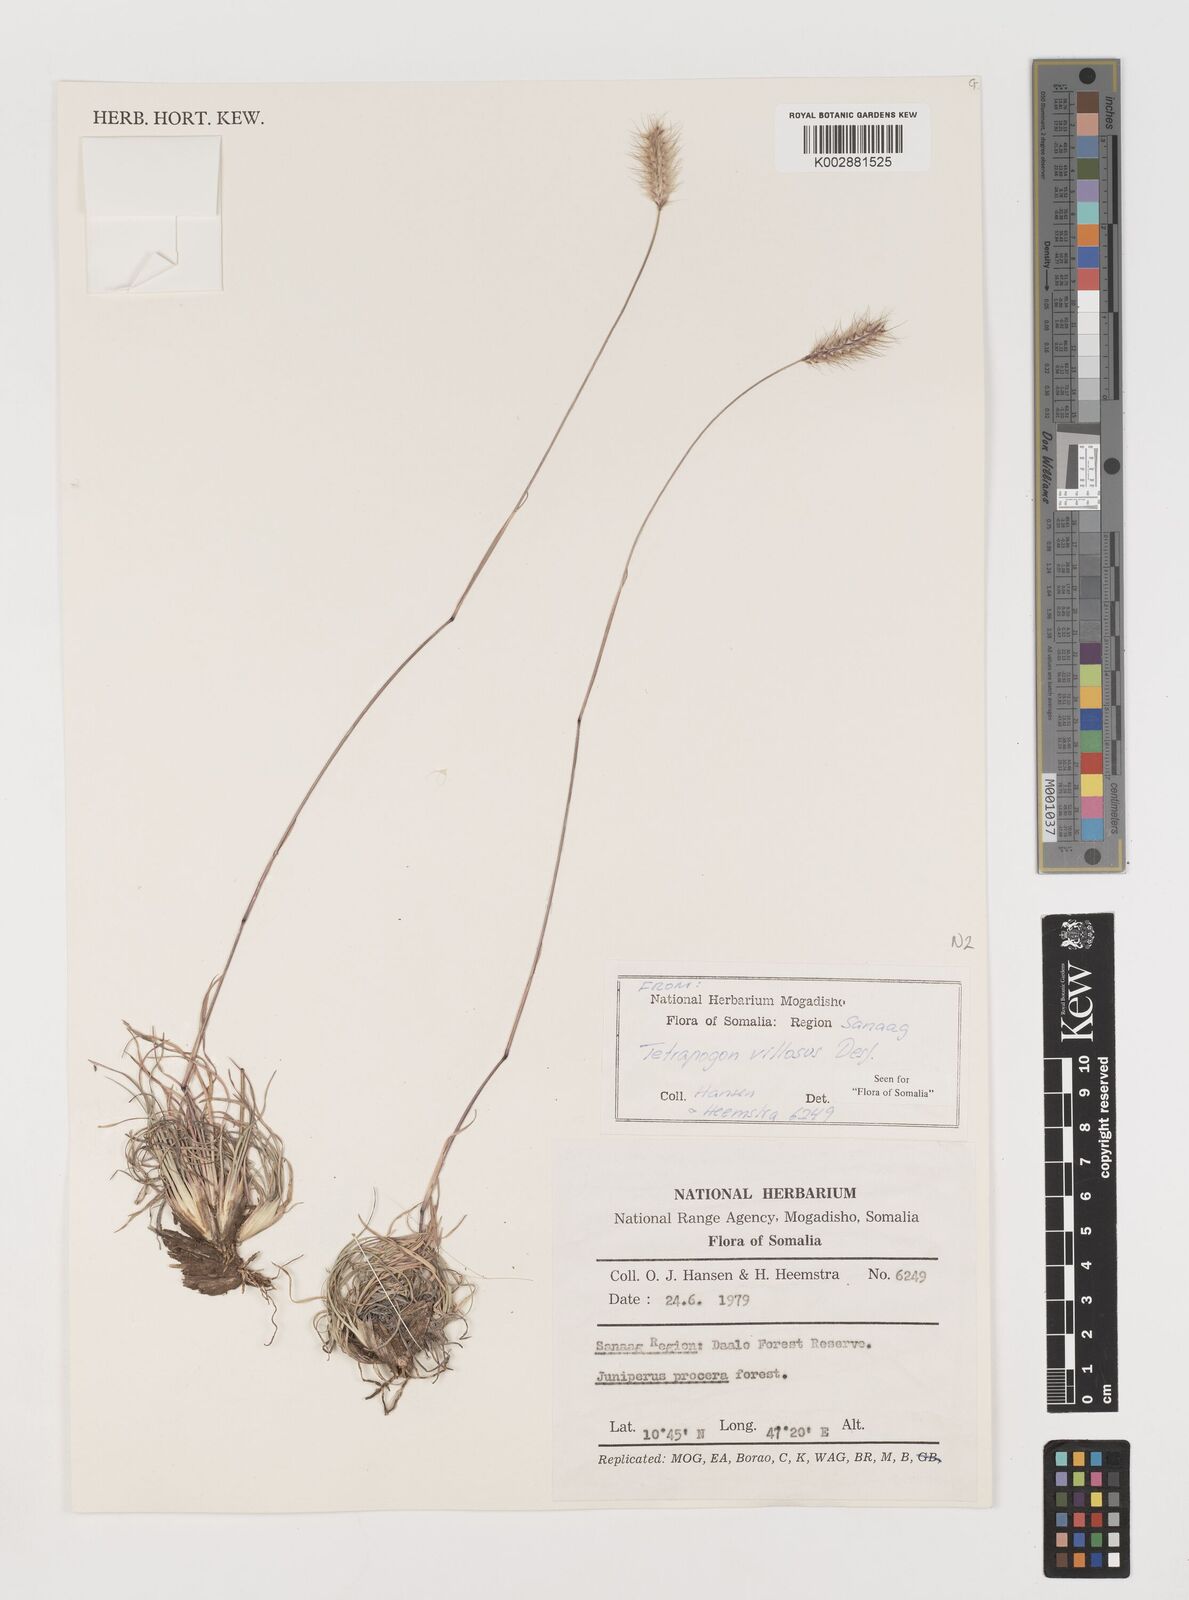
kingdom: Plantae
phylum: Tracheophyta
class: Liliopsida
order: Poales
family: Poaceae
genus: Tetrapogon
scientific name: Tetrapogon villosus
